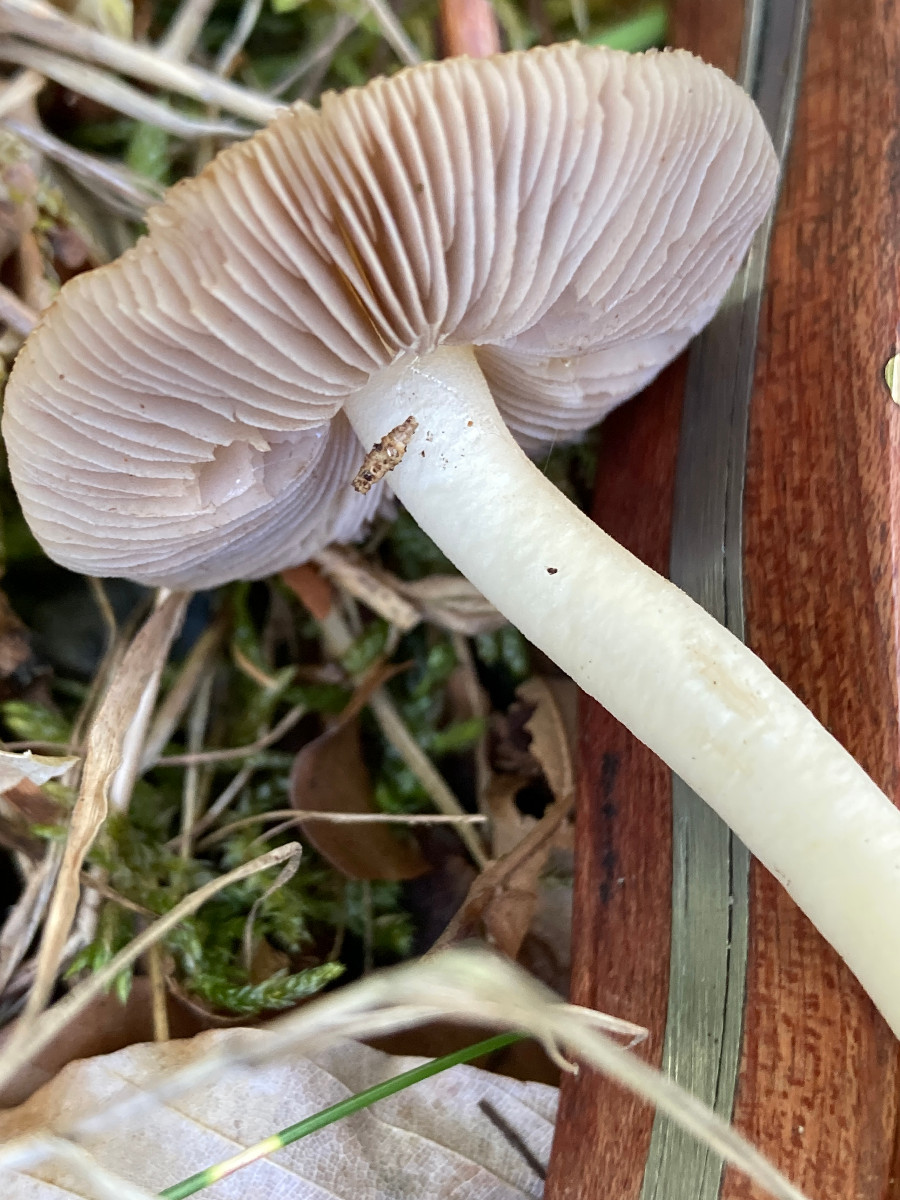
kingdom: Fungi
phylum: Basidiomycota
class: Agaricomycetes
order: Agaricales
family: Inocybaceae
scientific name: Inocybaceae
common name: trævlhatfamilien
